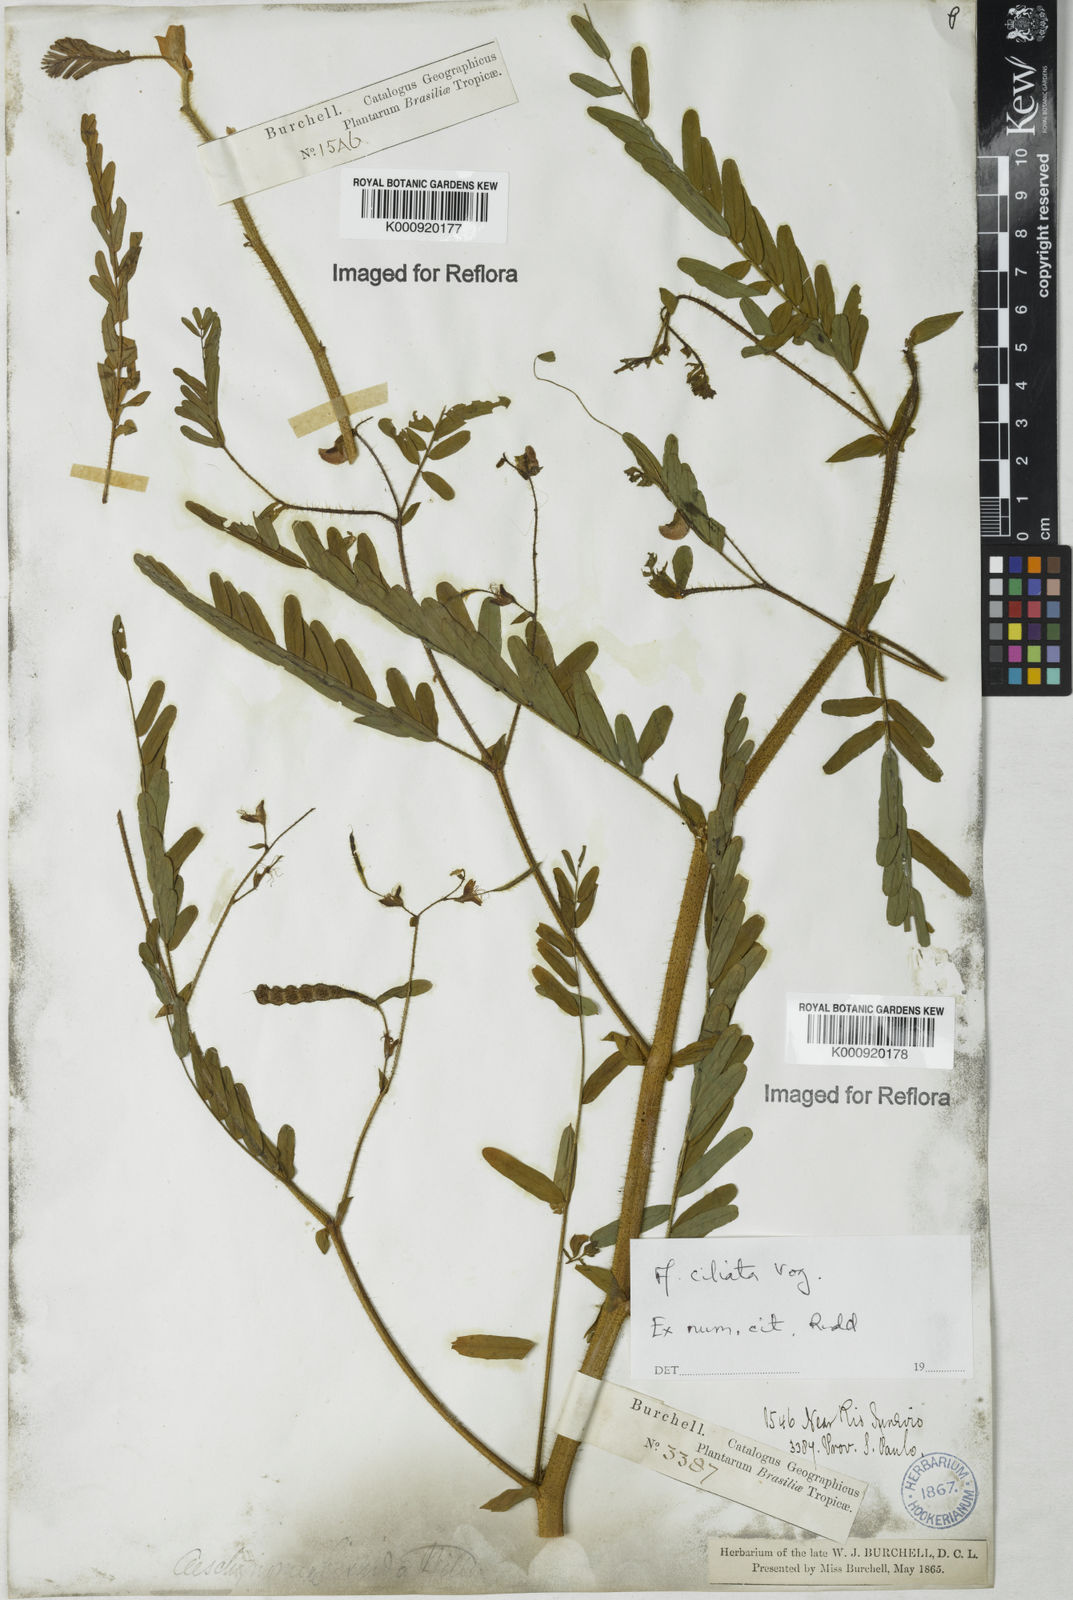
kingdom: Plantae
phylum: Tracheophyta
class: Magnoliopsida
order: Fabales
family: Fabaceae
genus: Aeschynomene
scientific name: Aeschynomene ciliata
